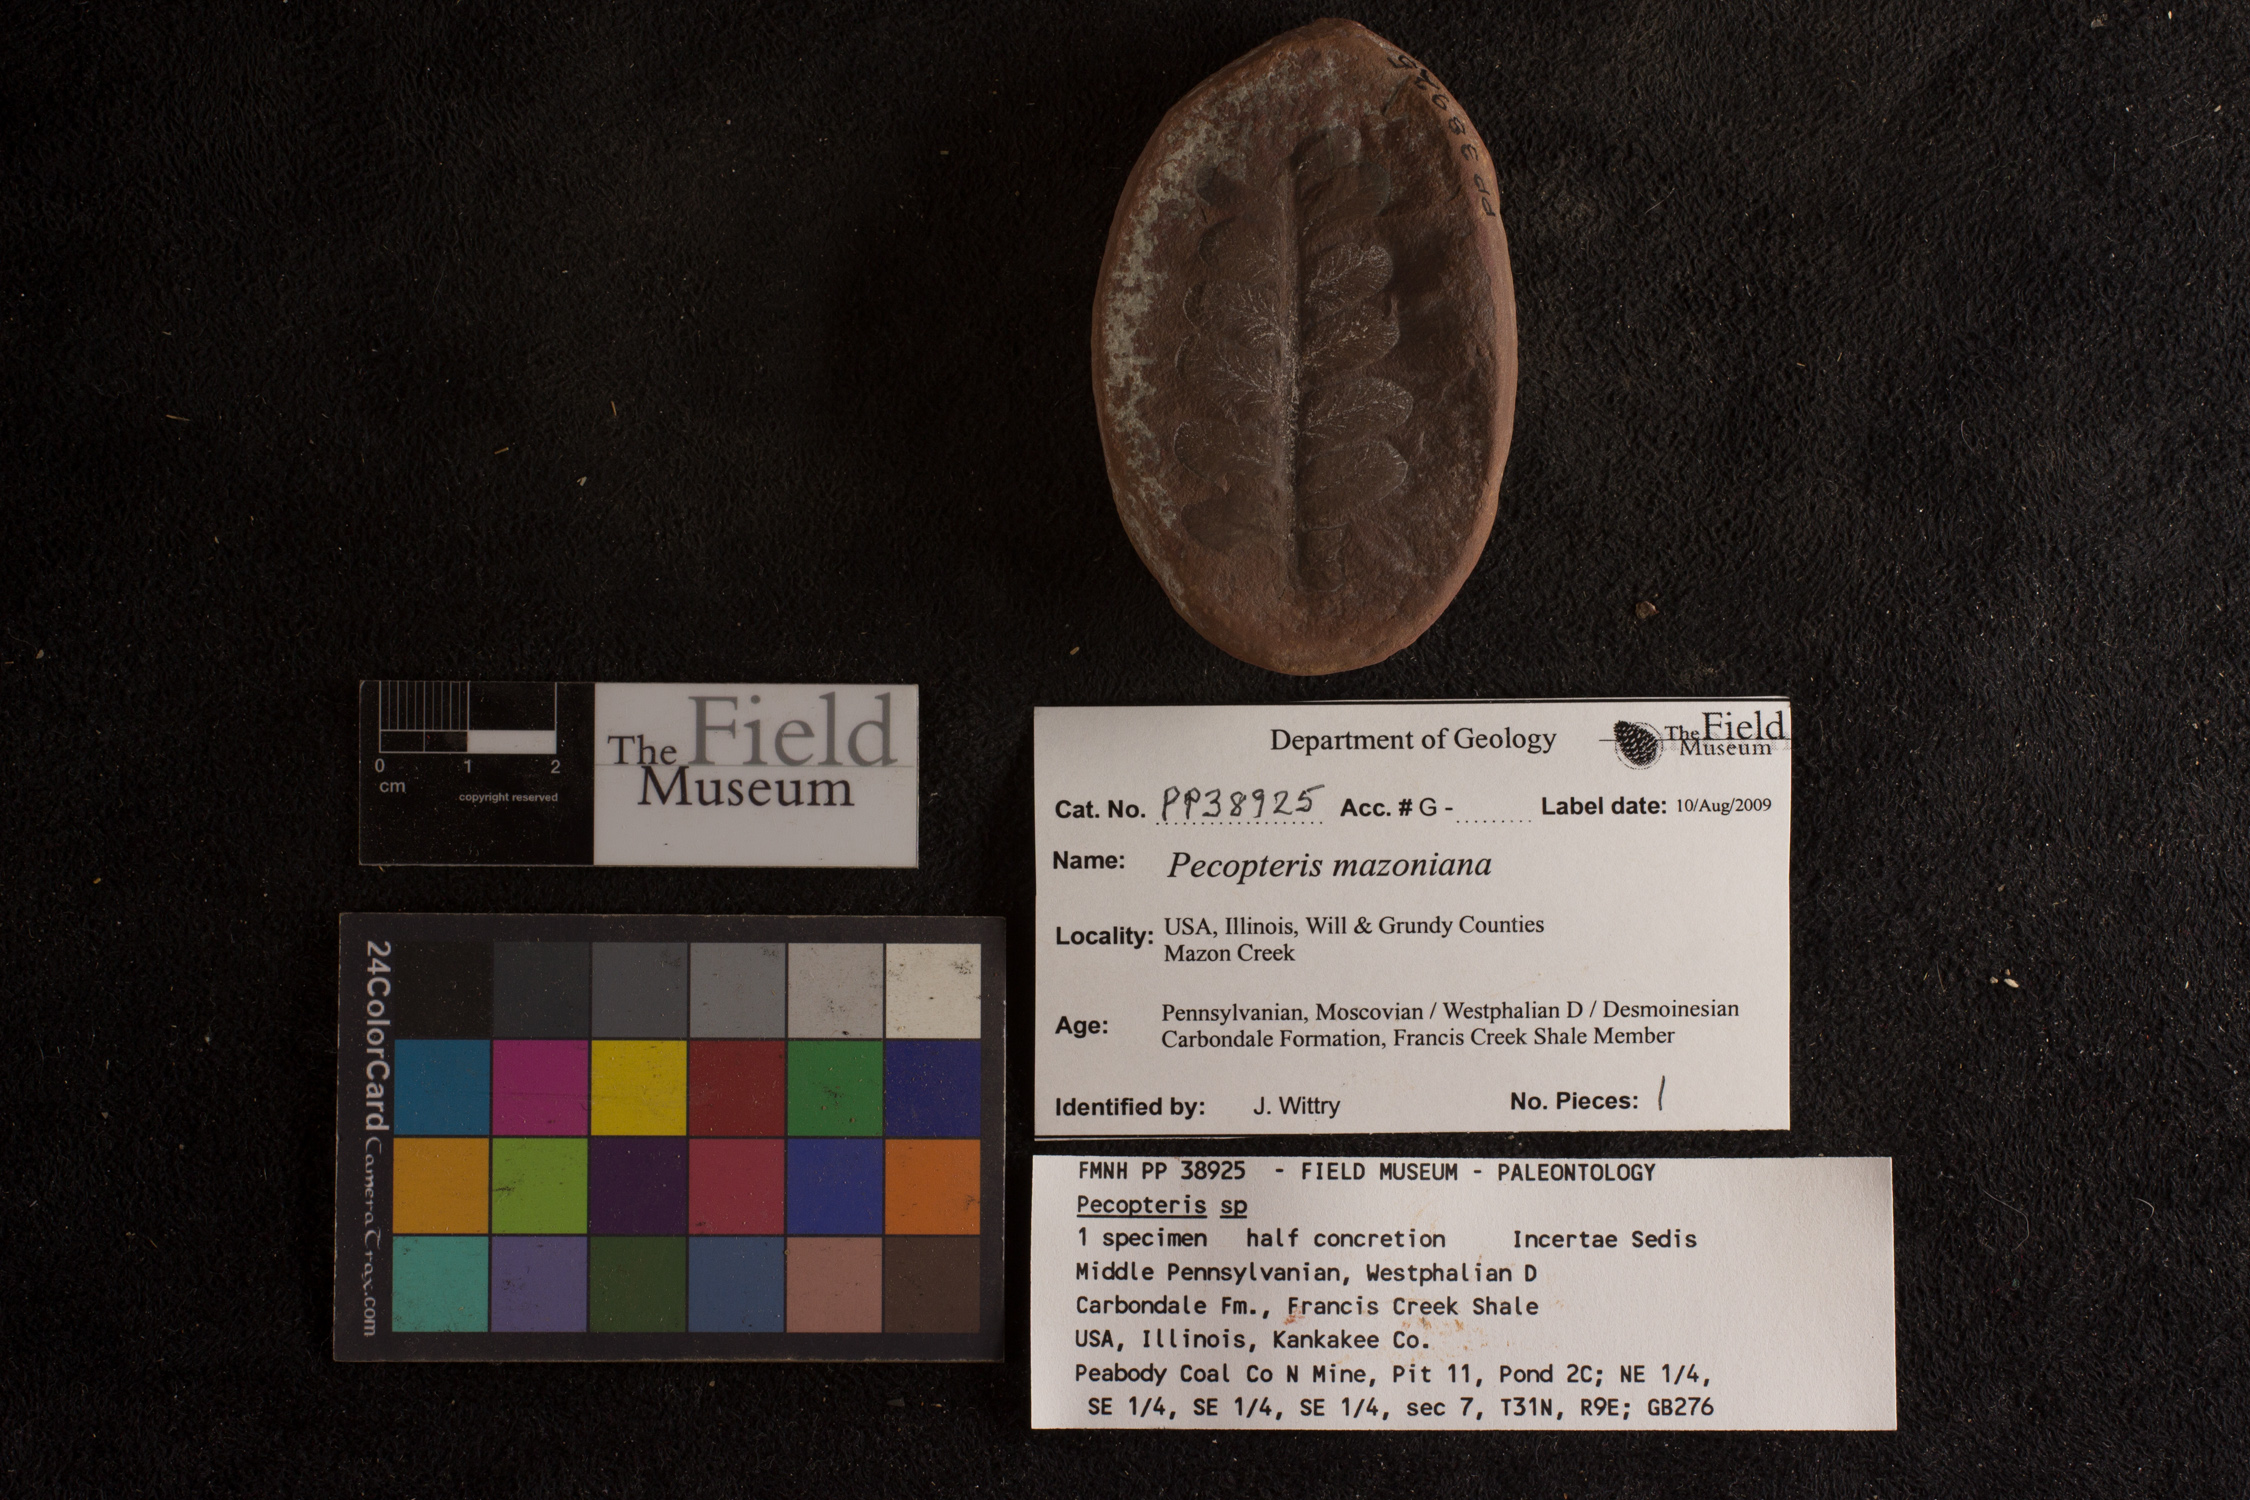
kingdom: Plantae
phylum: Tracheophyta
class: Polypodiopsida
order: Marattiales
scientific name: Marattiales
